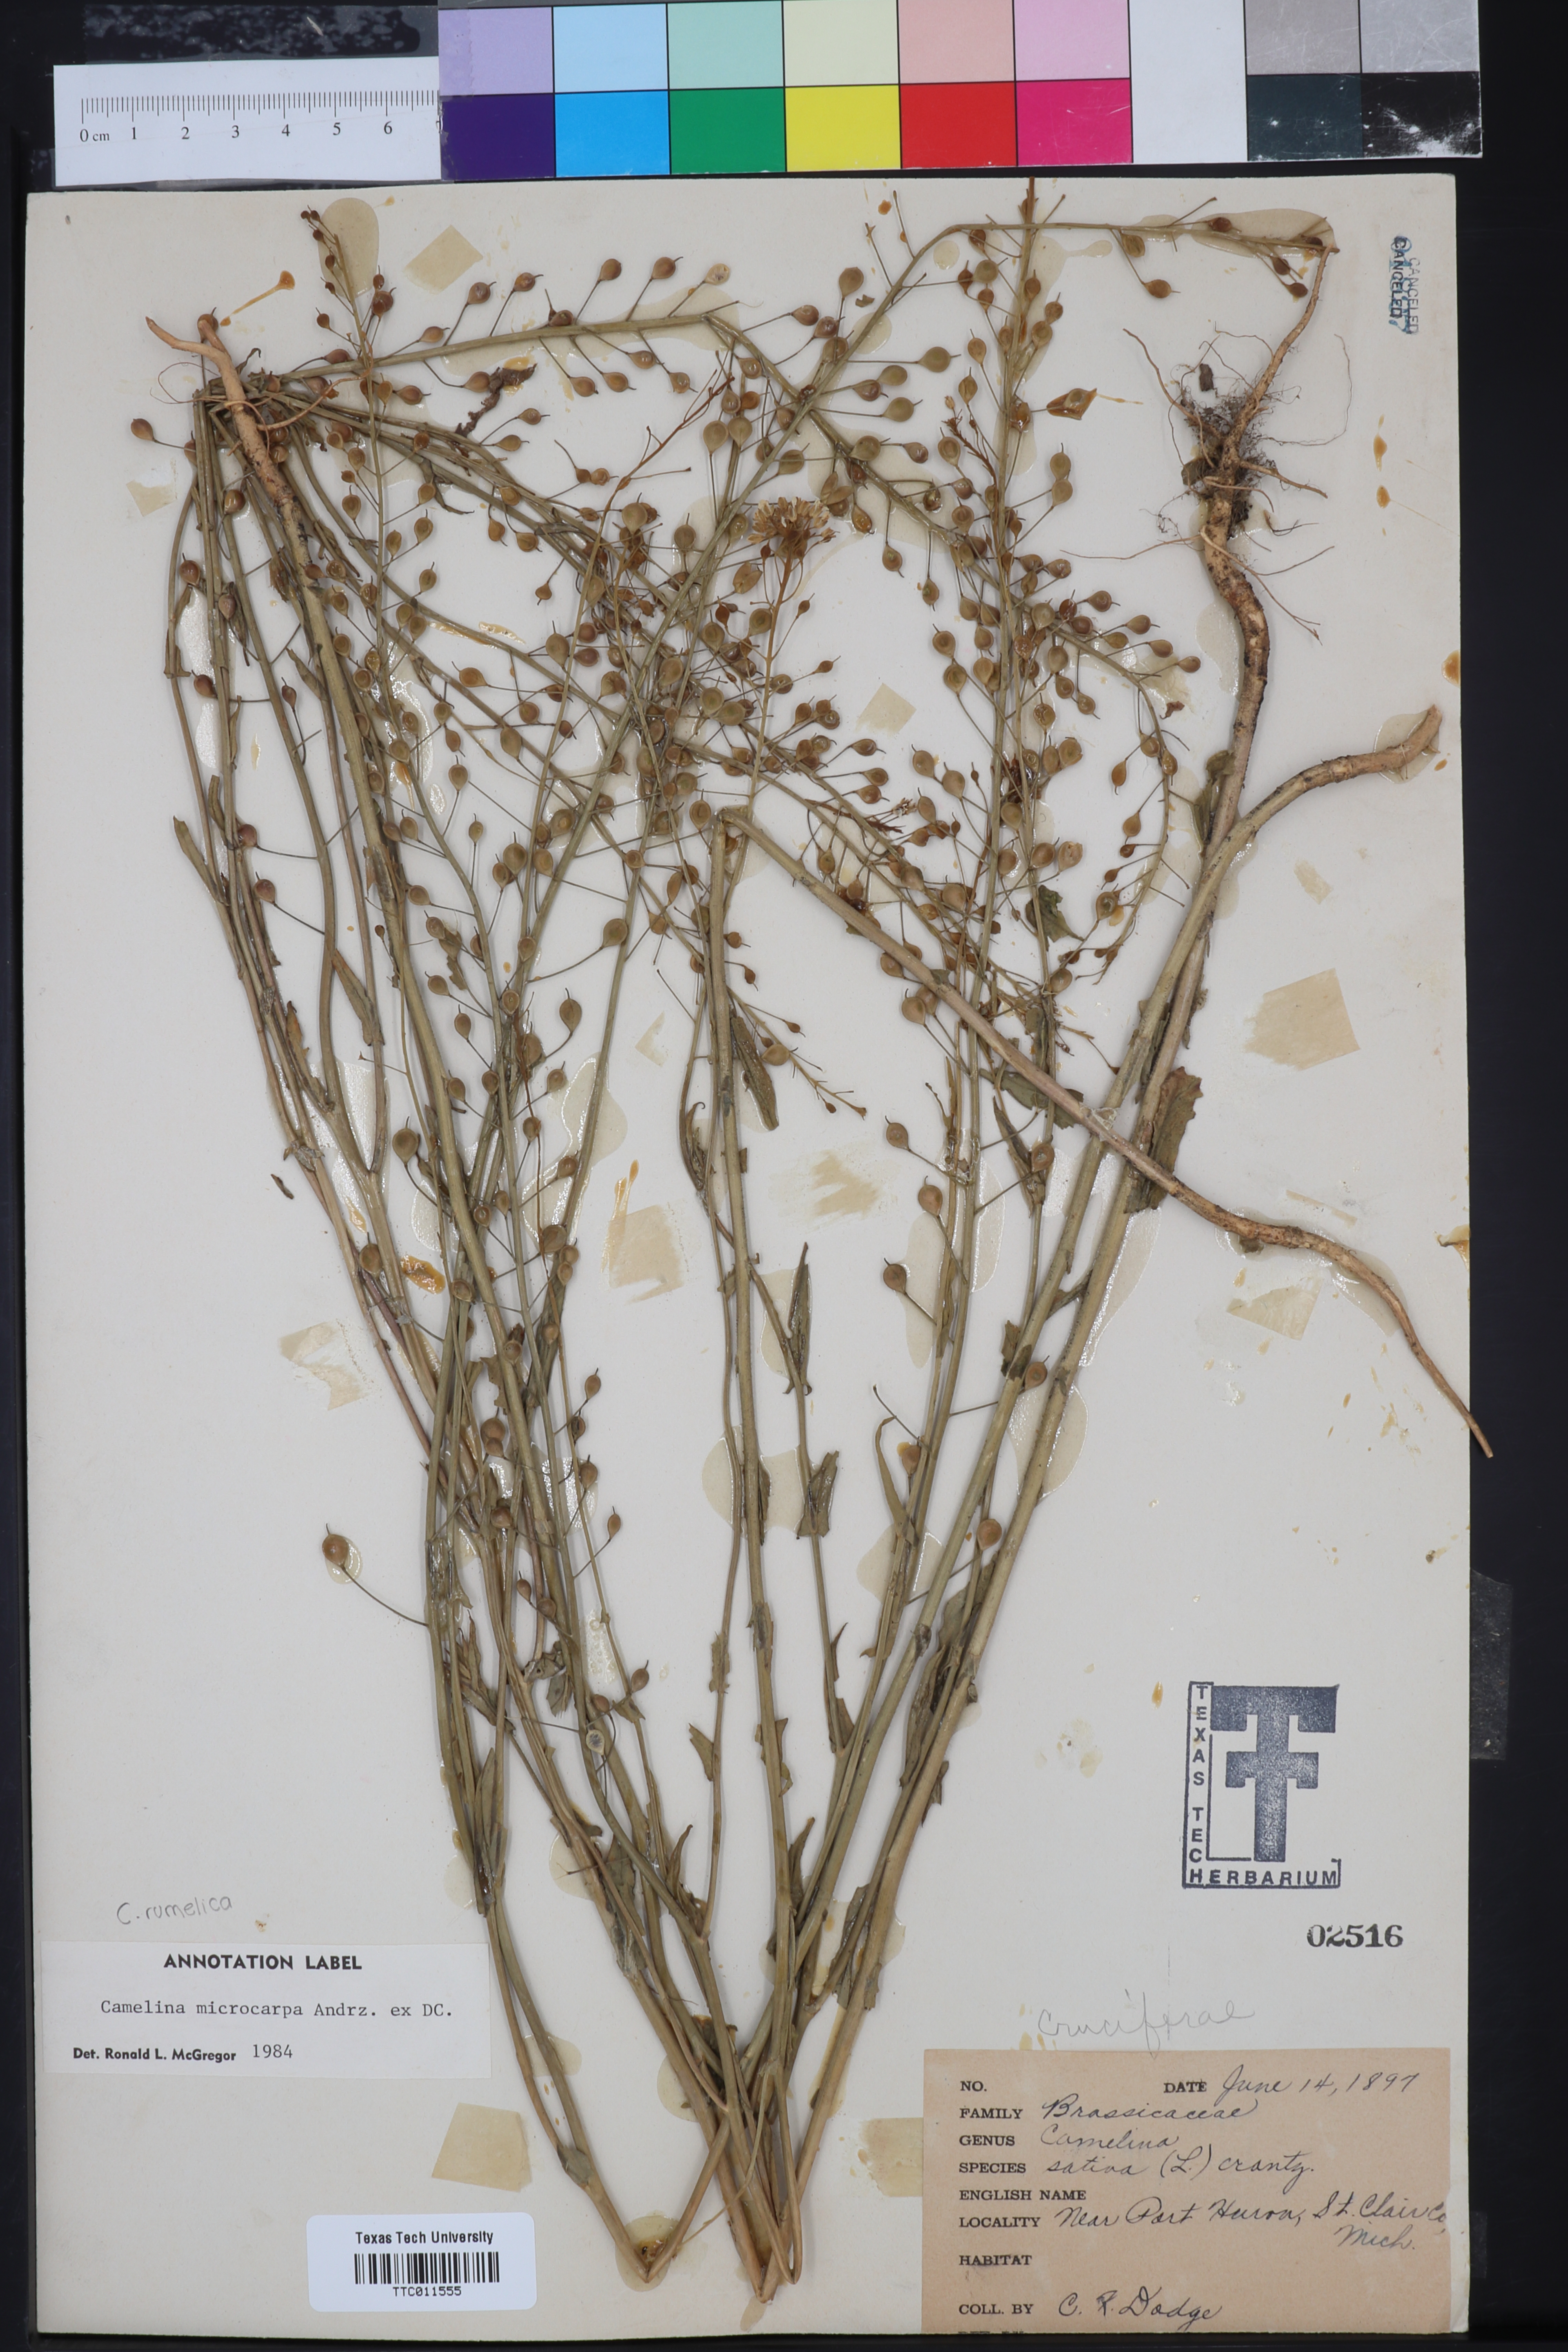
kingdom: Plantae
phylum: Tracheophyta
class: Magnoliopsida
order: Brassicales
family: Brassicaceae
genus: Camelina
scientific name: Camelina microcarpa
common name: Lesser gold-of-pleasure
